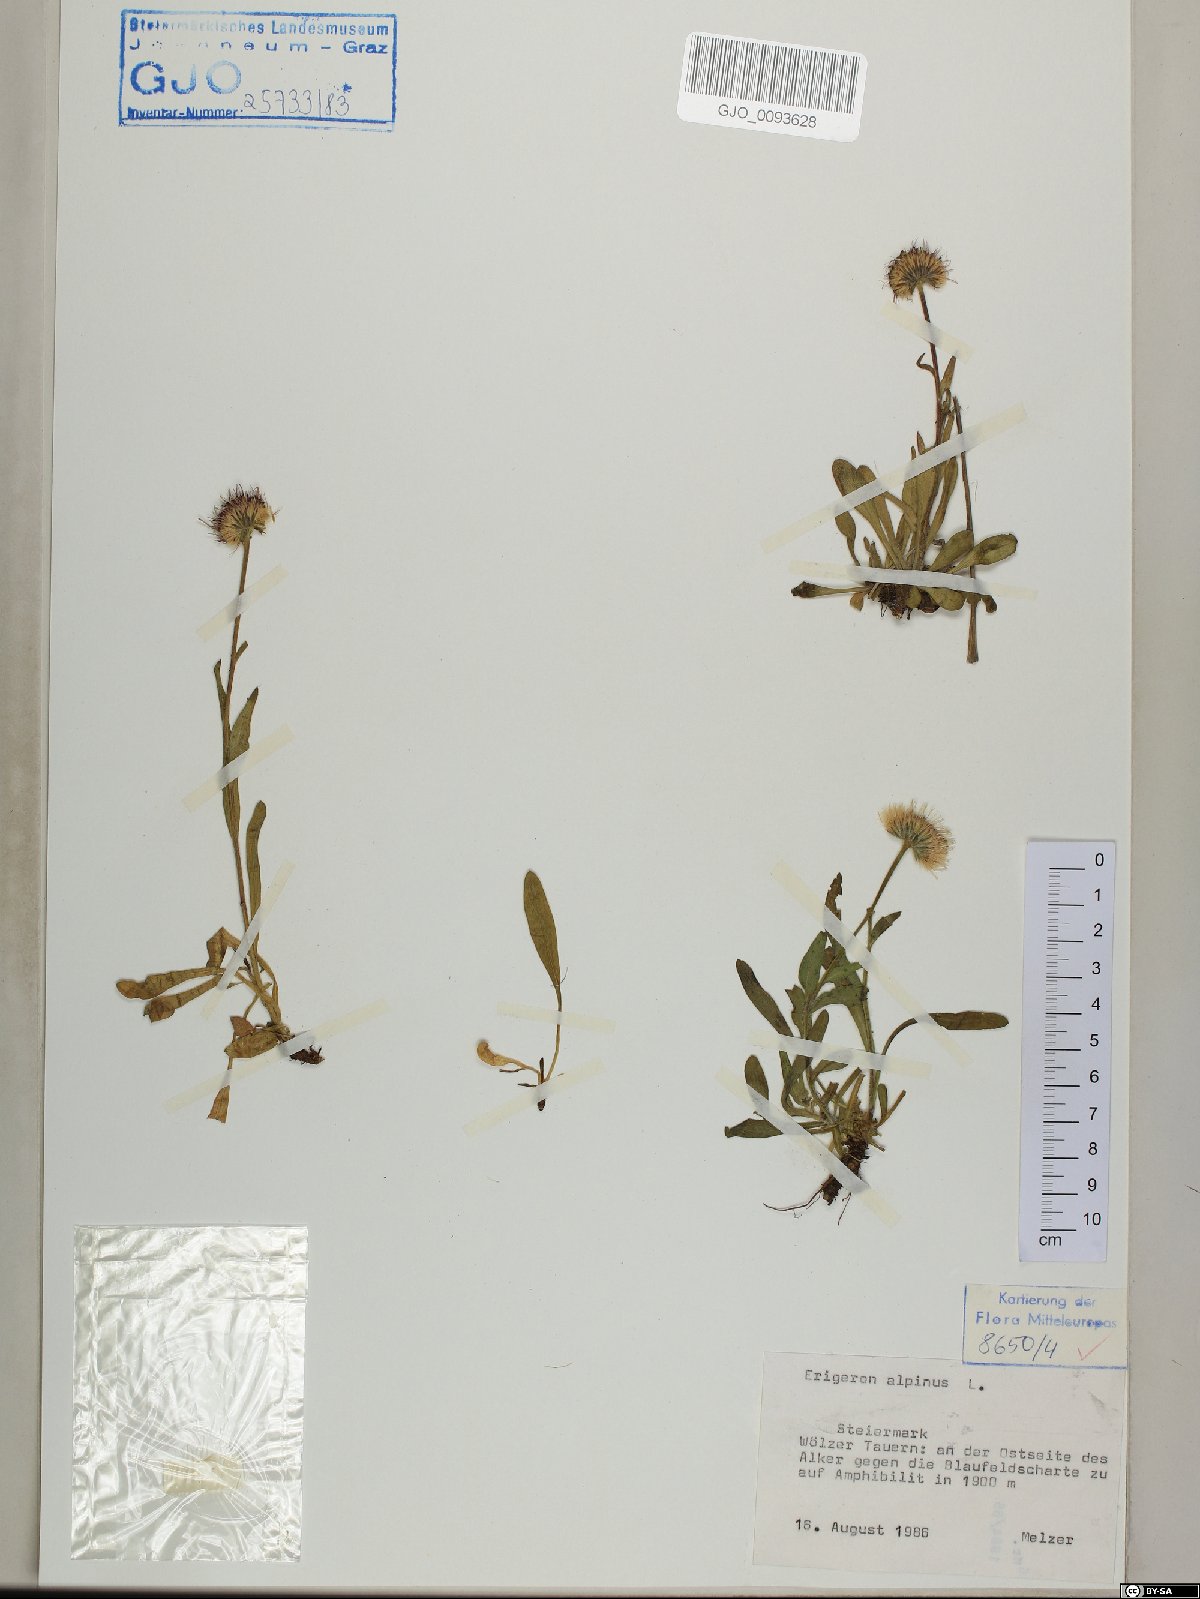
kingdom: Plantae
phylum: Tracheophyta
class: Magnoliopsida
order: Asterales
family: Asteraceae
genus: Erigeron
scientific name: Erigeron alpinus
